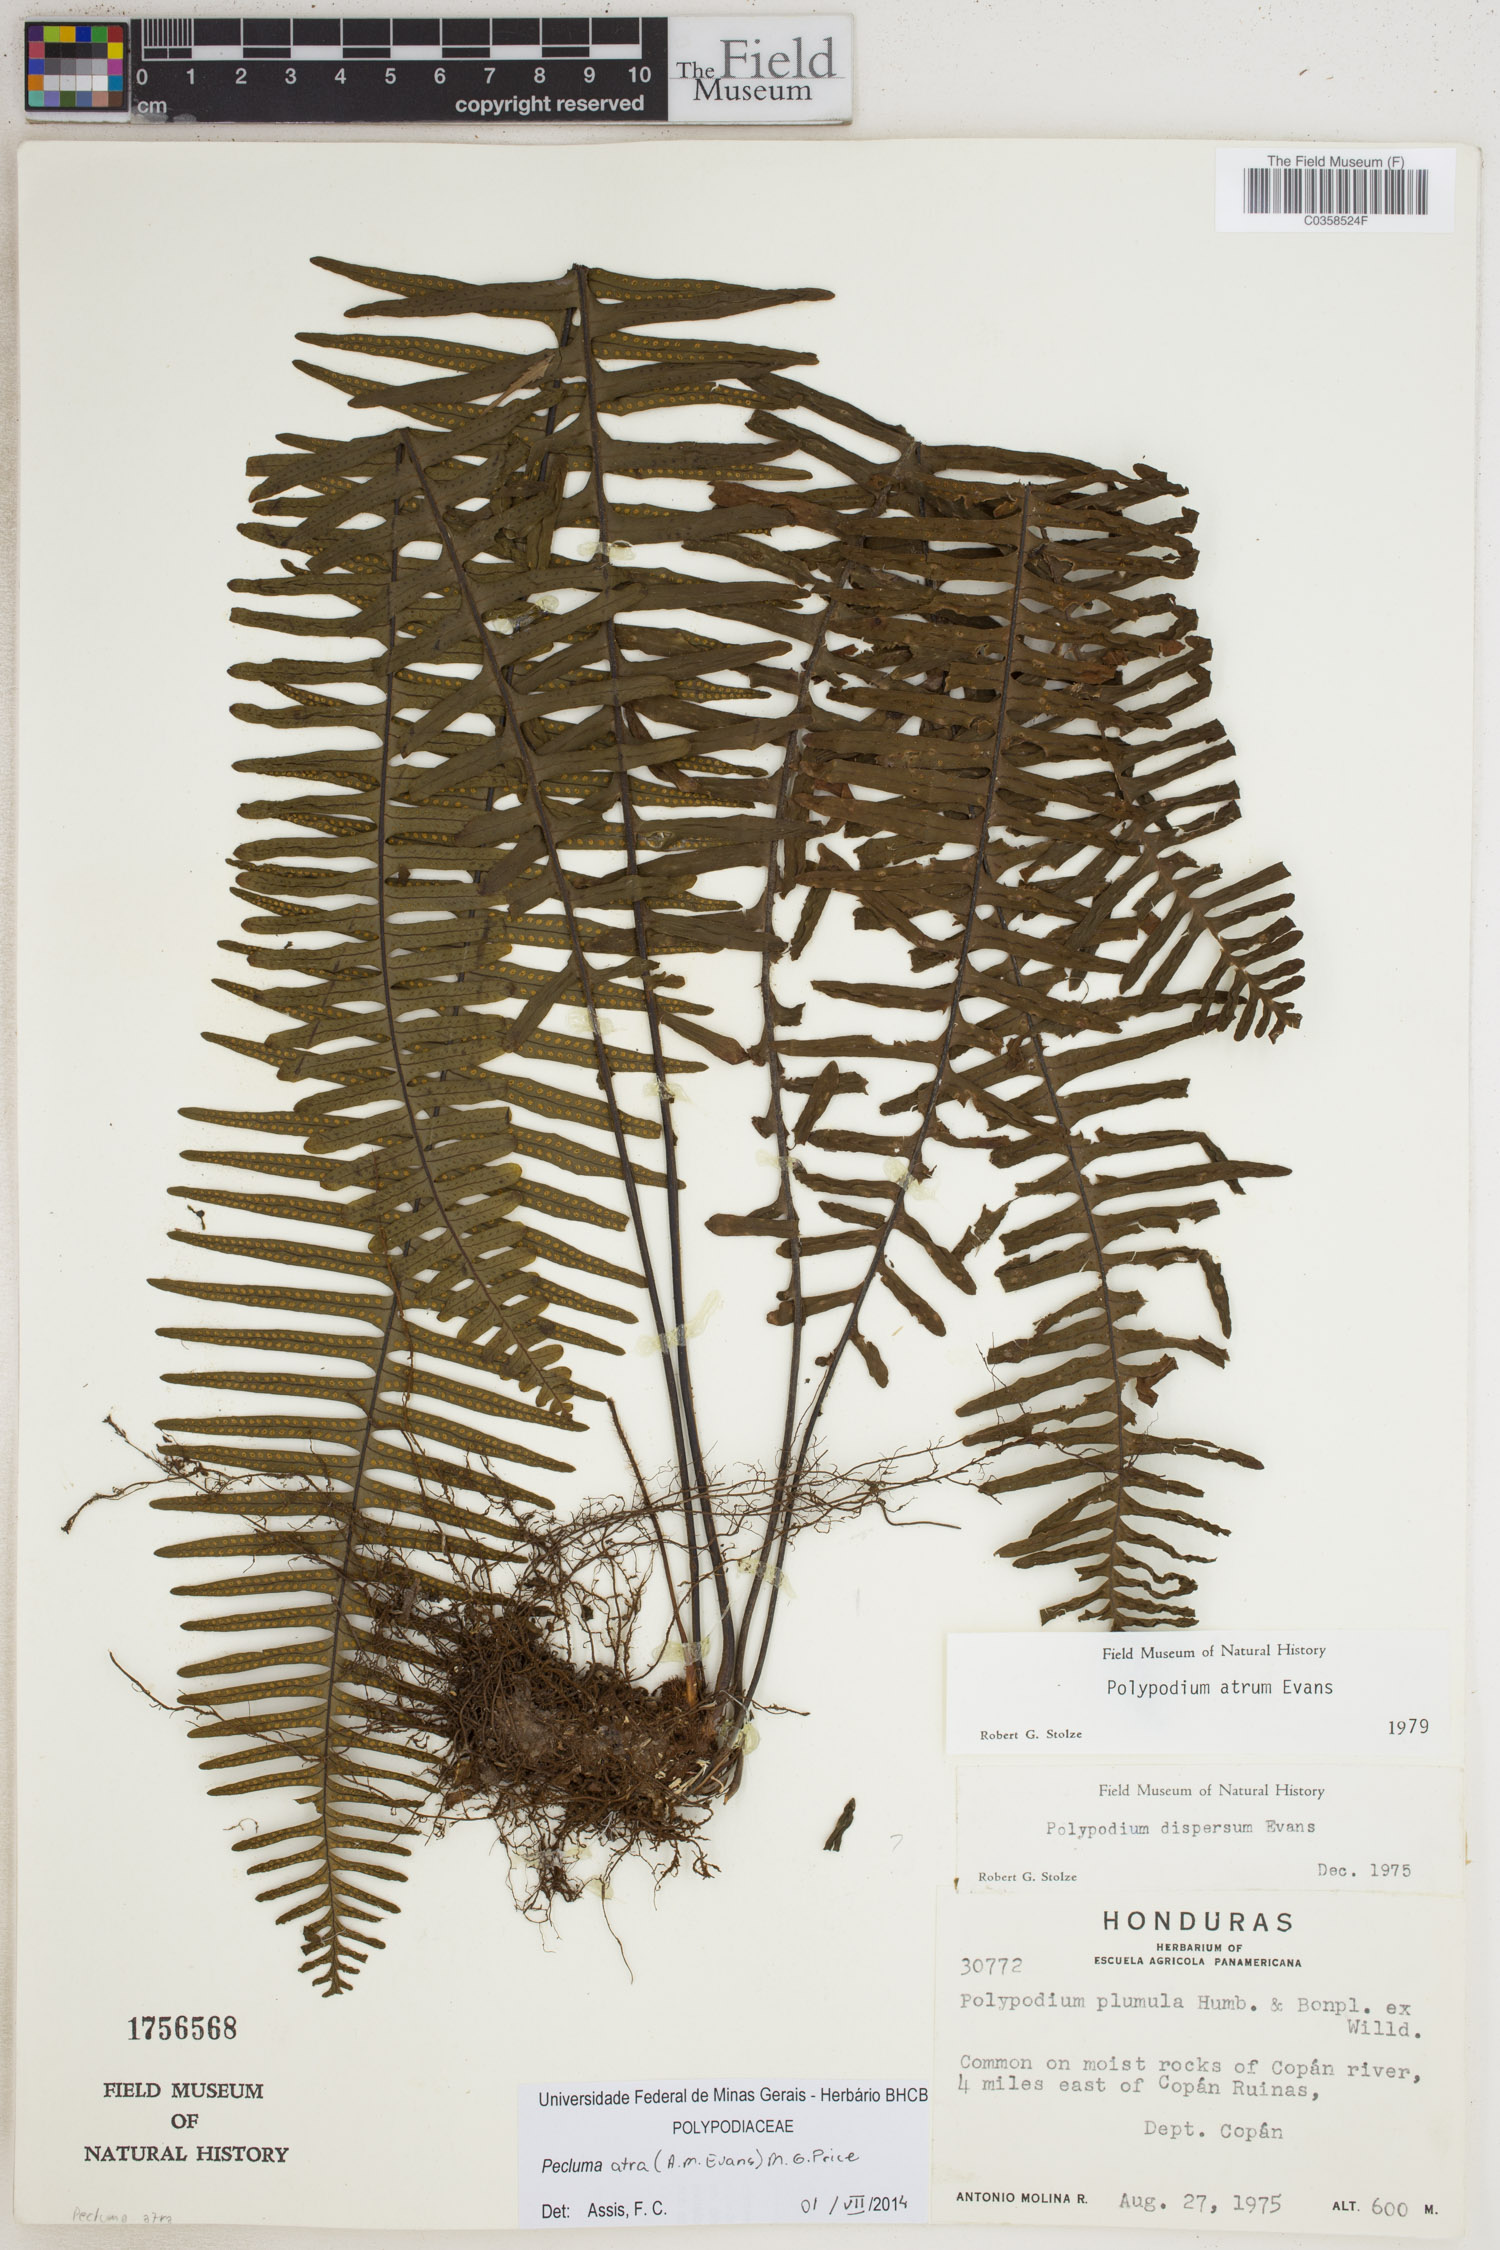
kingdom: Plantae
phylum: Tracheophyta
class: Polypodiopsida
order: Polypodiales
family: Polypodiaceae
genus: Pecluma
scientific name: Pecluma atra
